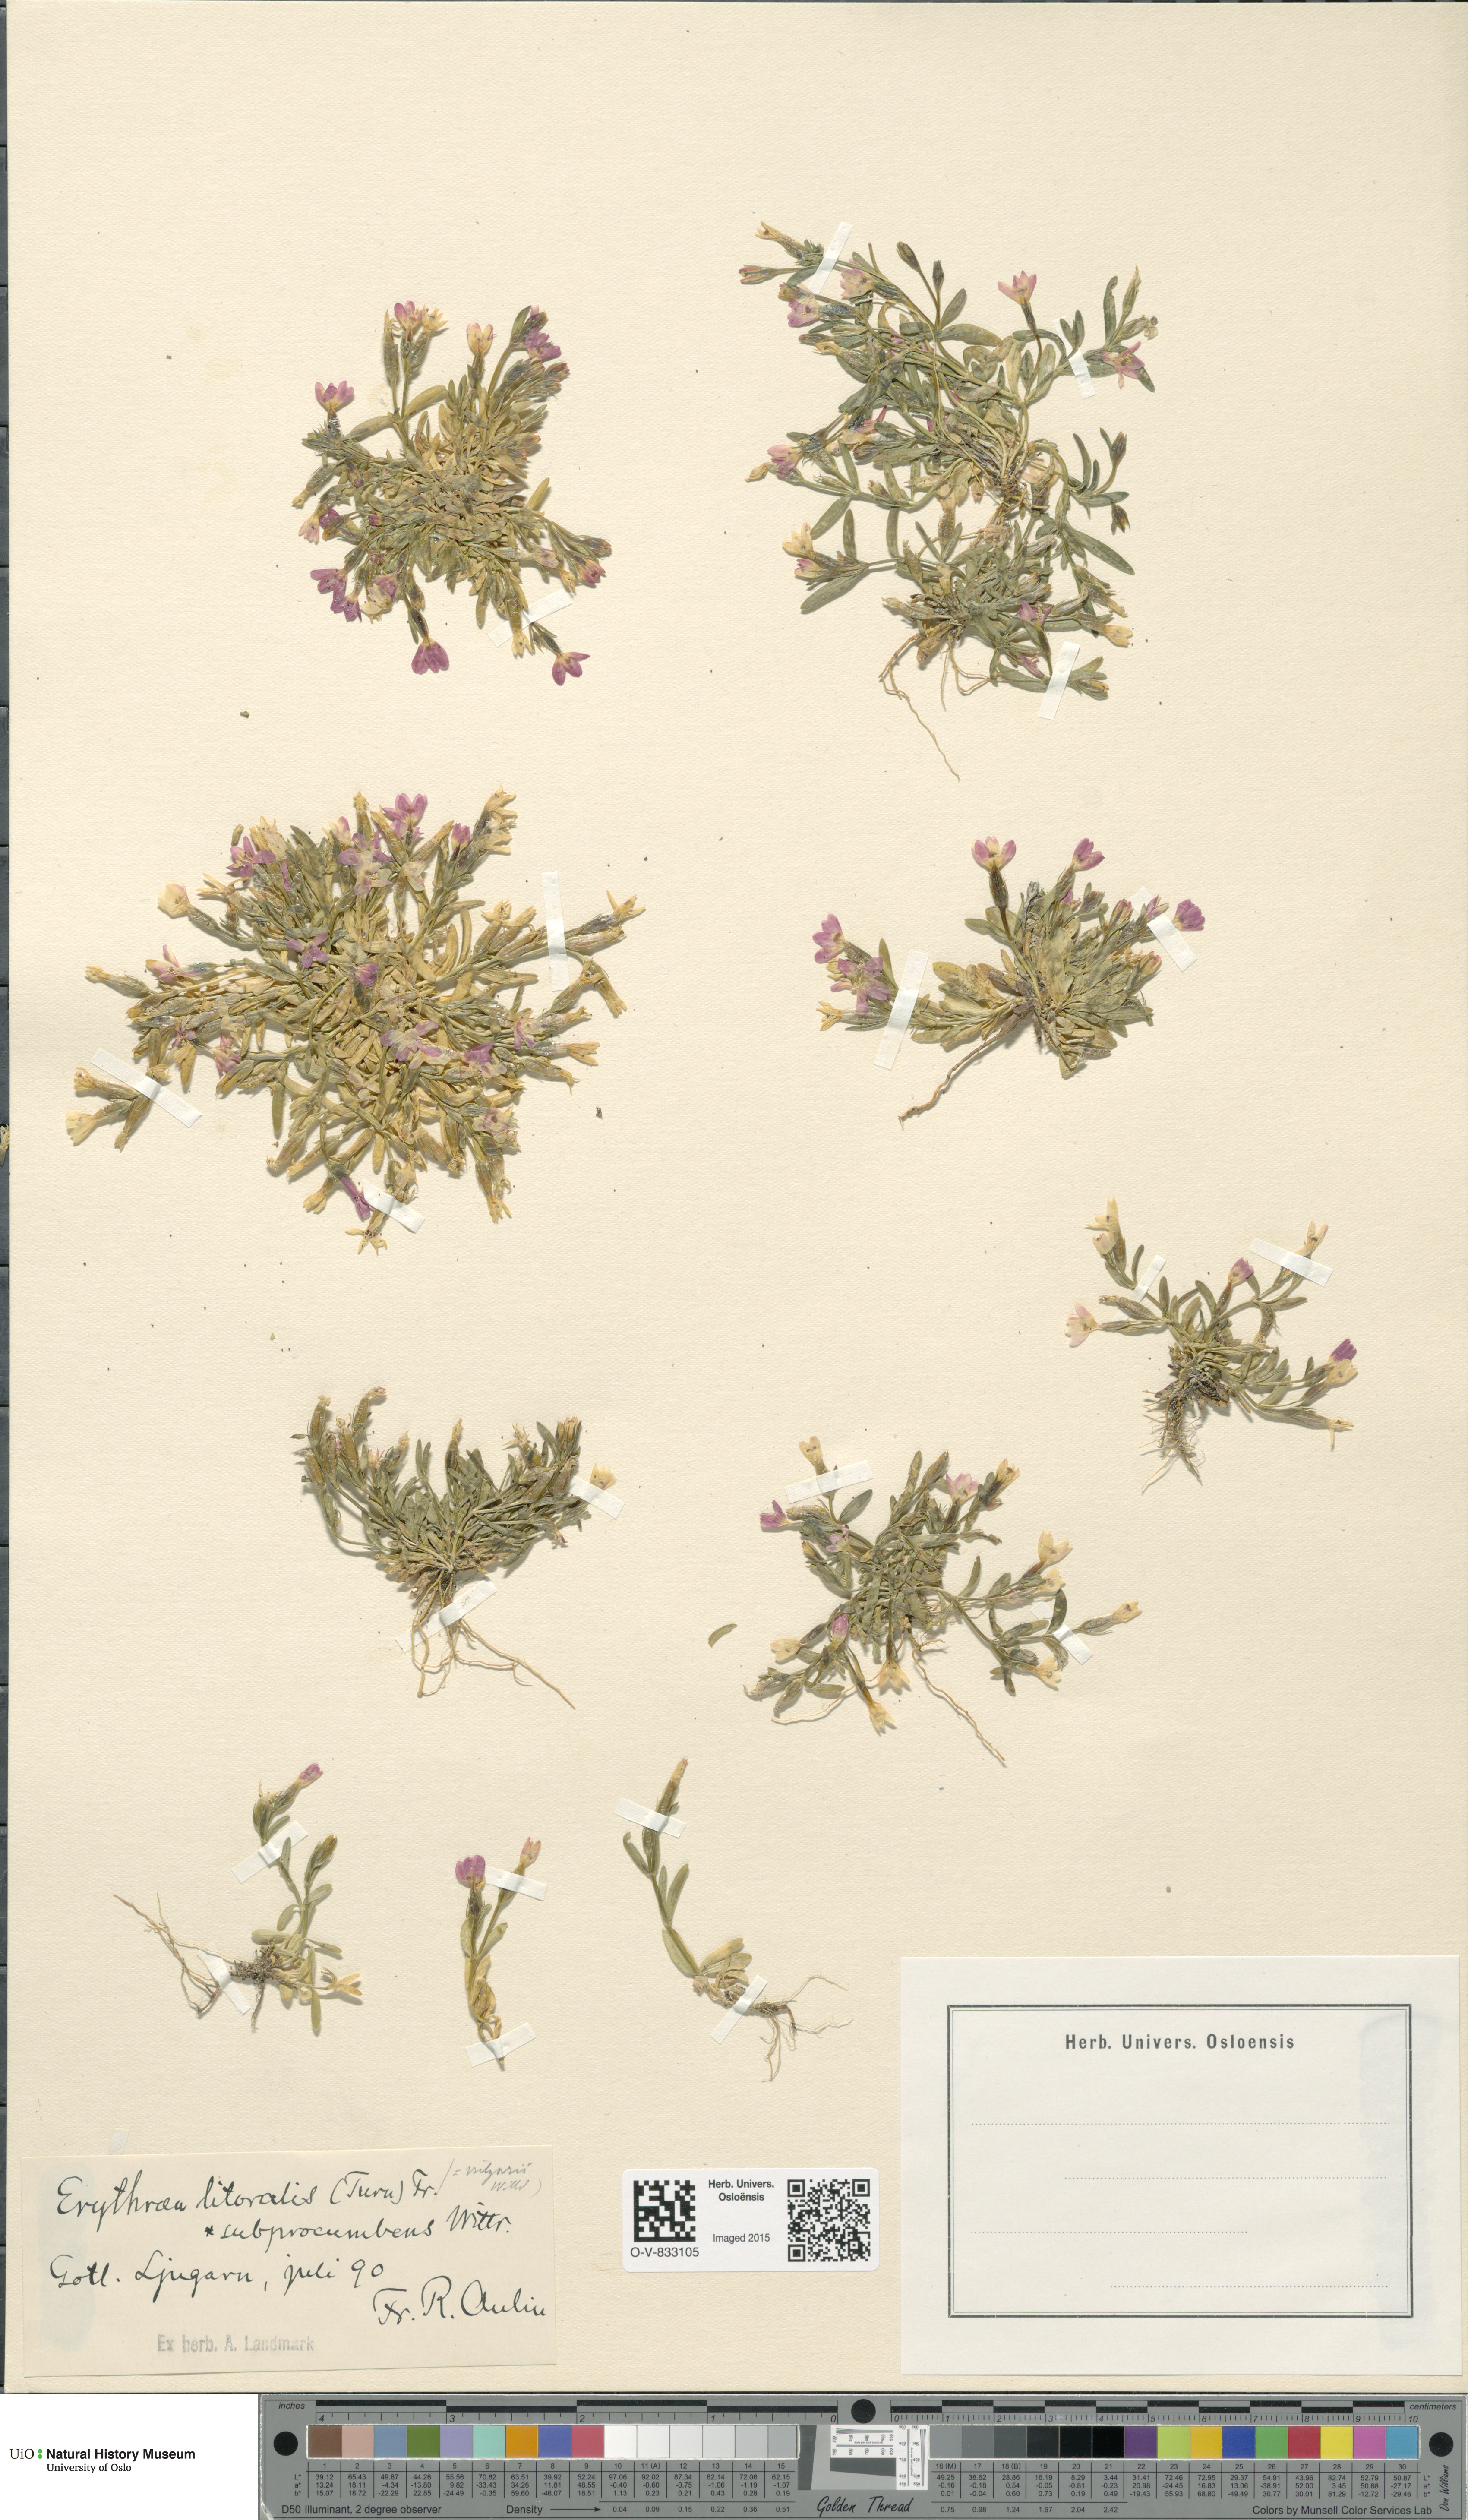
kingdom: Plantae
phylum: Tracheophyta
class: Magnoliopsida
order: Gentianales
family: Gentianaceae
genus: Centaurium
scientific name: Centaurium littorale
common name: Seaside centaury
